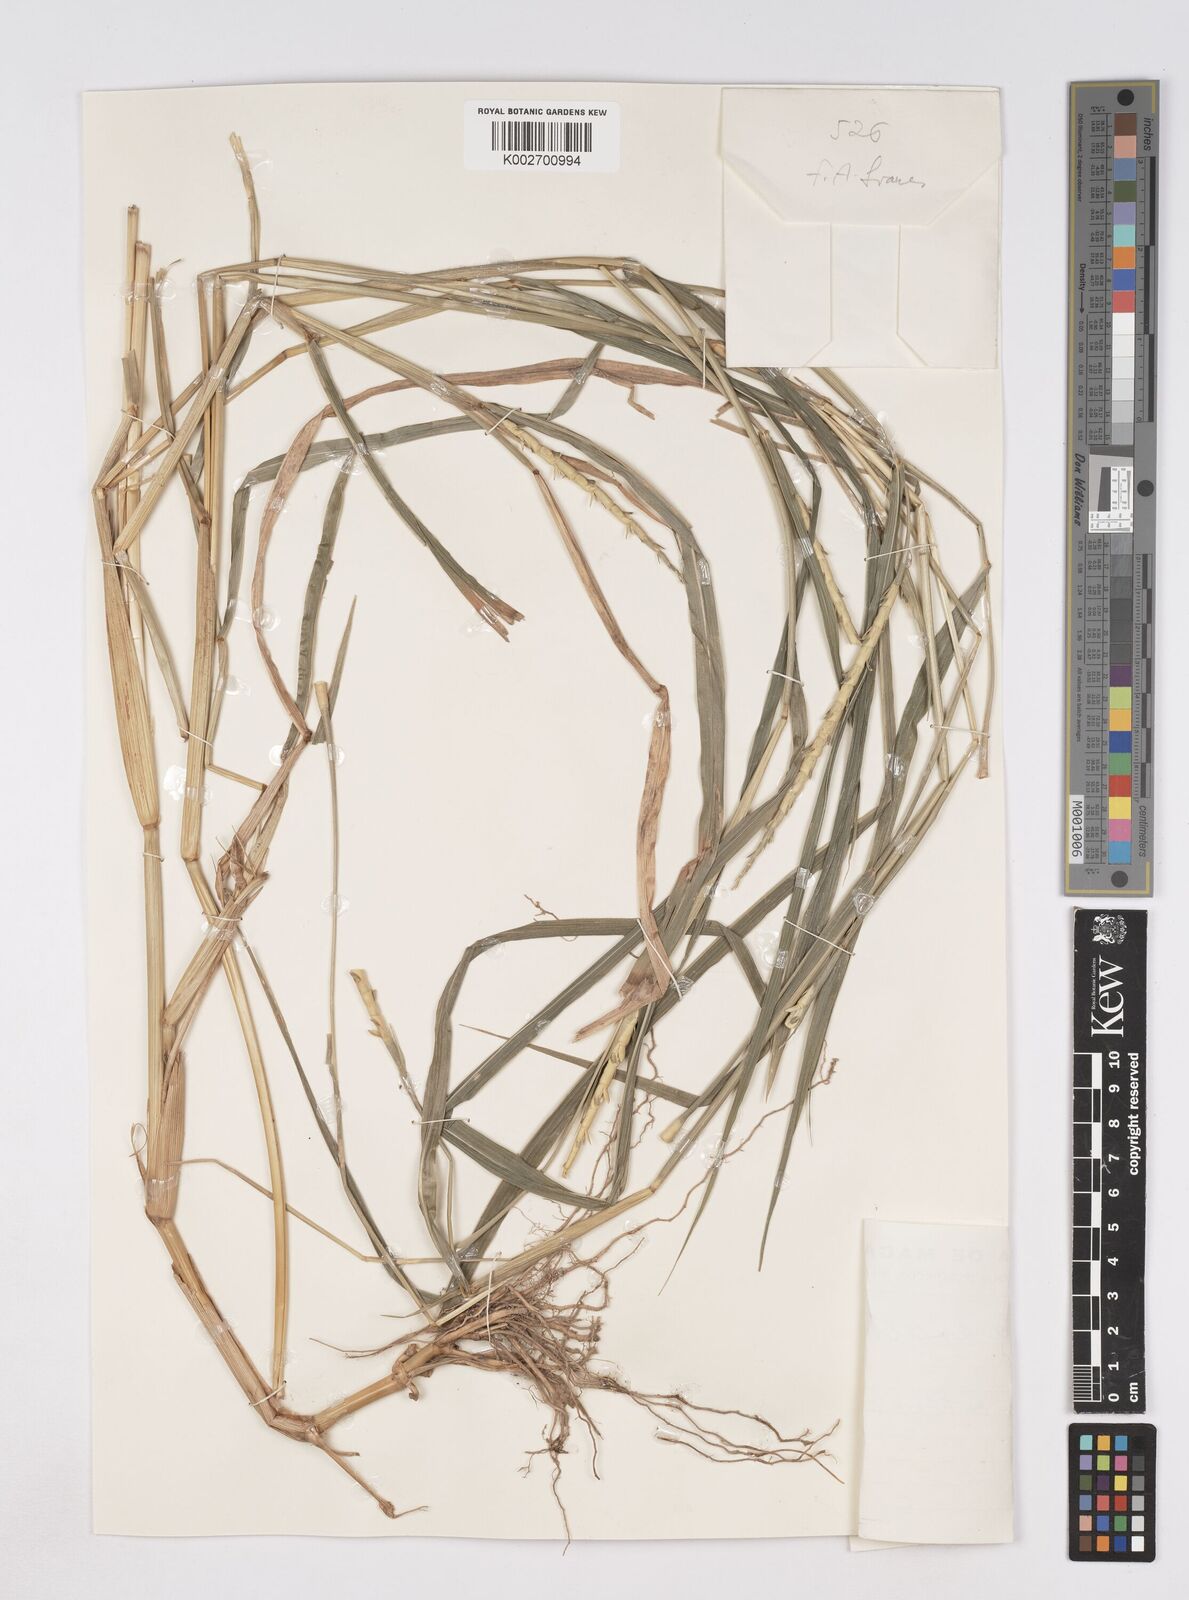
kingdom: Plantae
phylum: Tracheophyta
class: Liliopsida
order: Poales
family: Poaceae
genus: Rottboellia
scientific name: Rottboellia cochinchinensis
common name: Itchgrass
